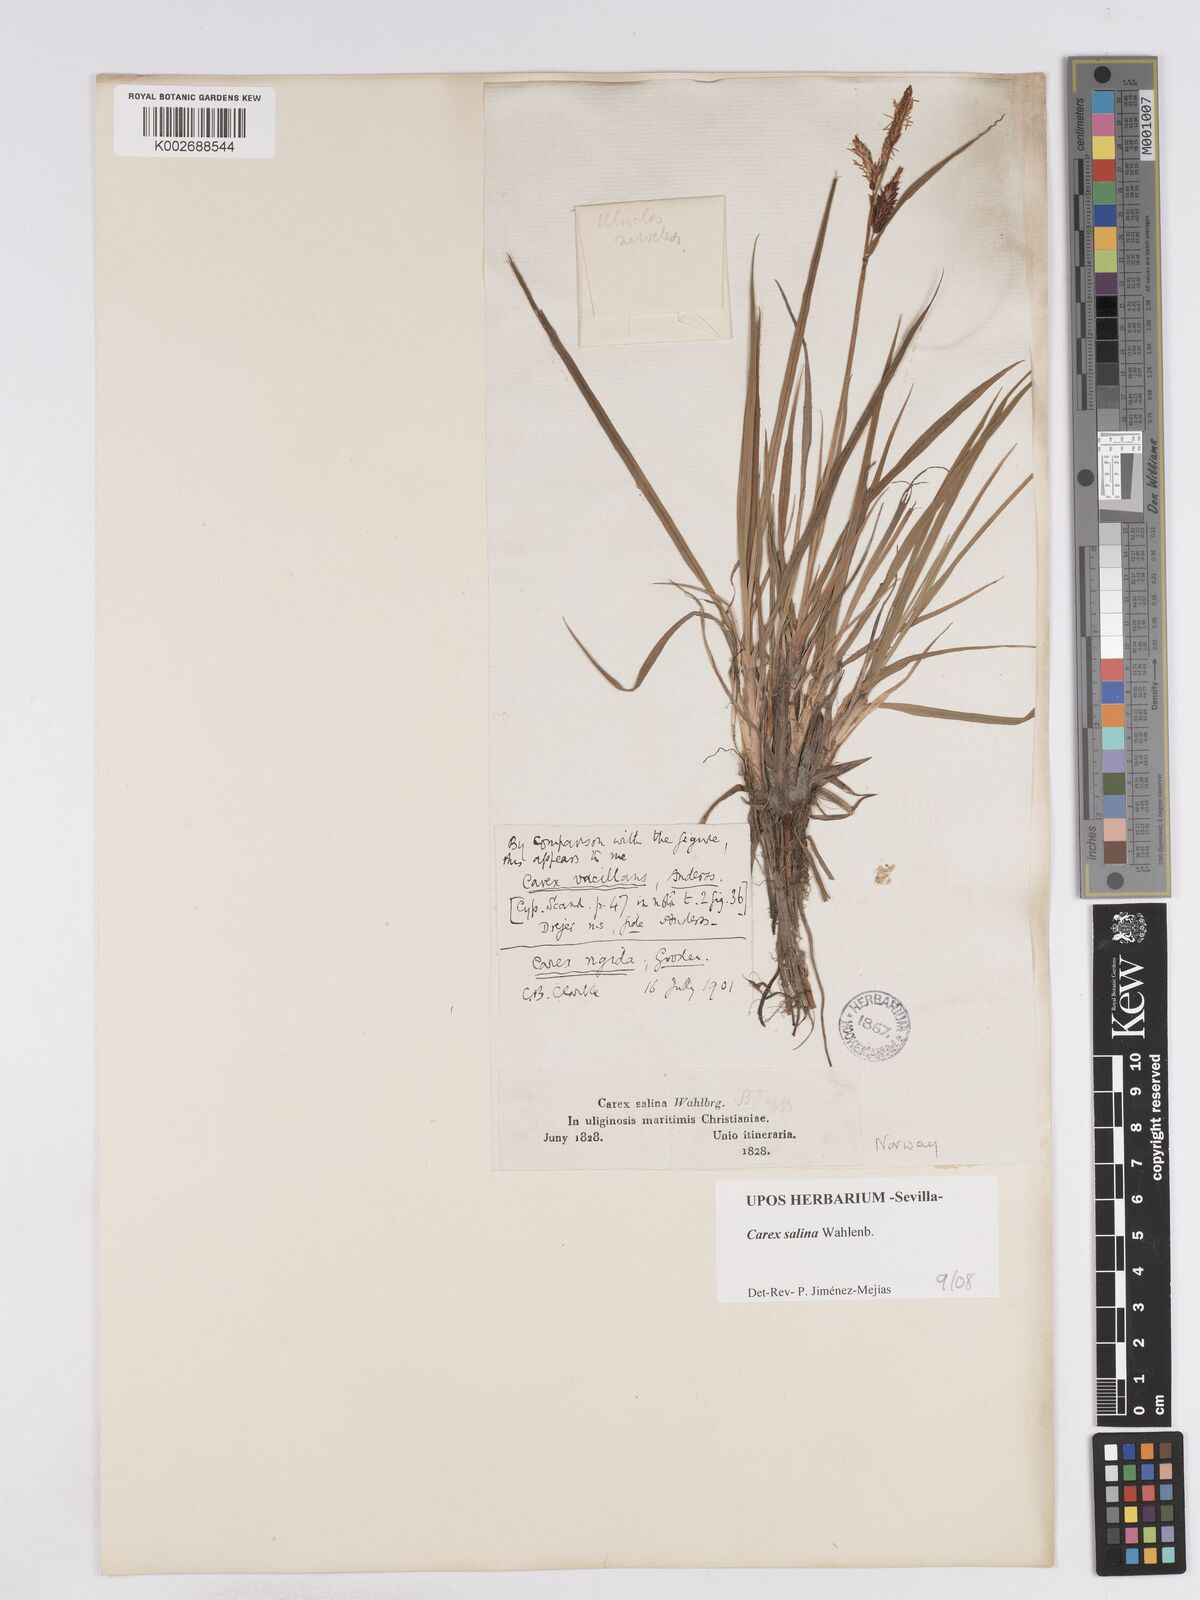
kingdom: Plantae
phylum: Tracheophyta
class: Liliopsida
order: Poales
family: Cyperaceae
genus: Carex
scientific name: Carex recta
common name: Estuarine sedge
